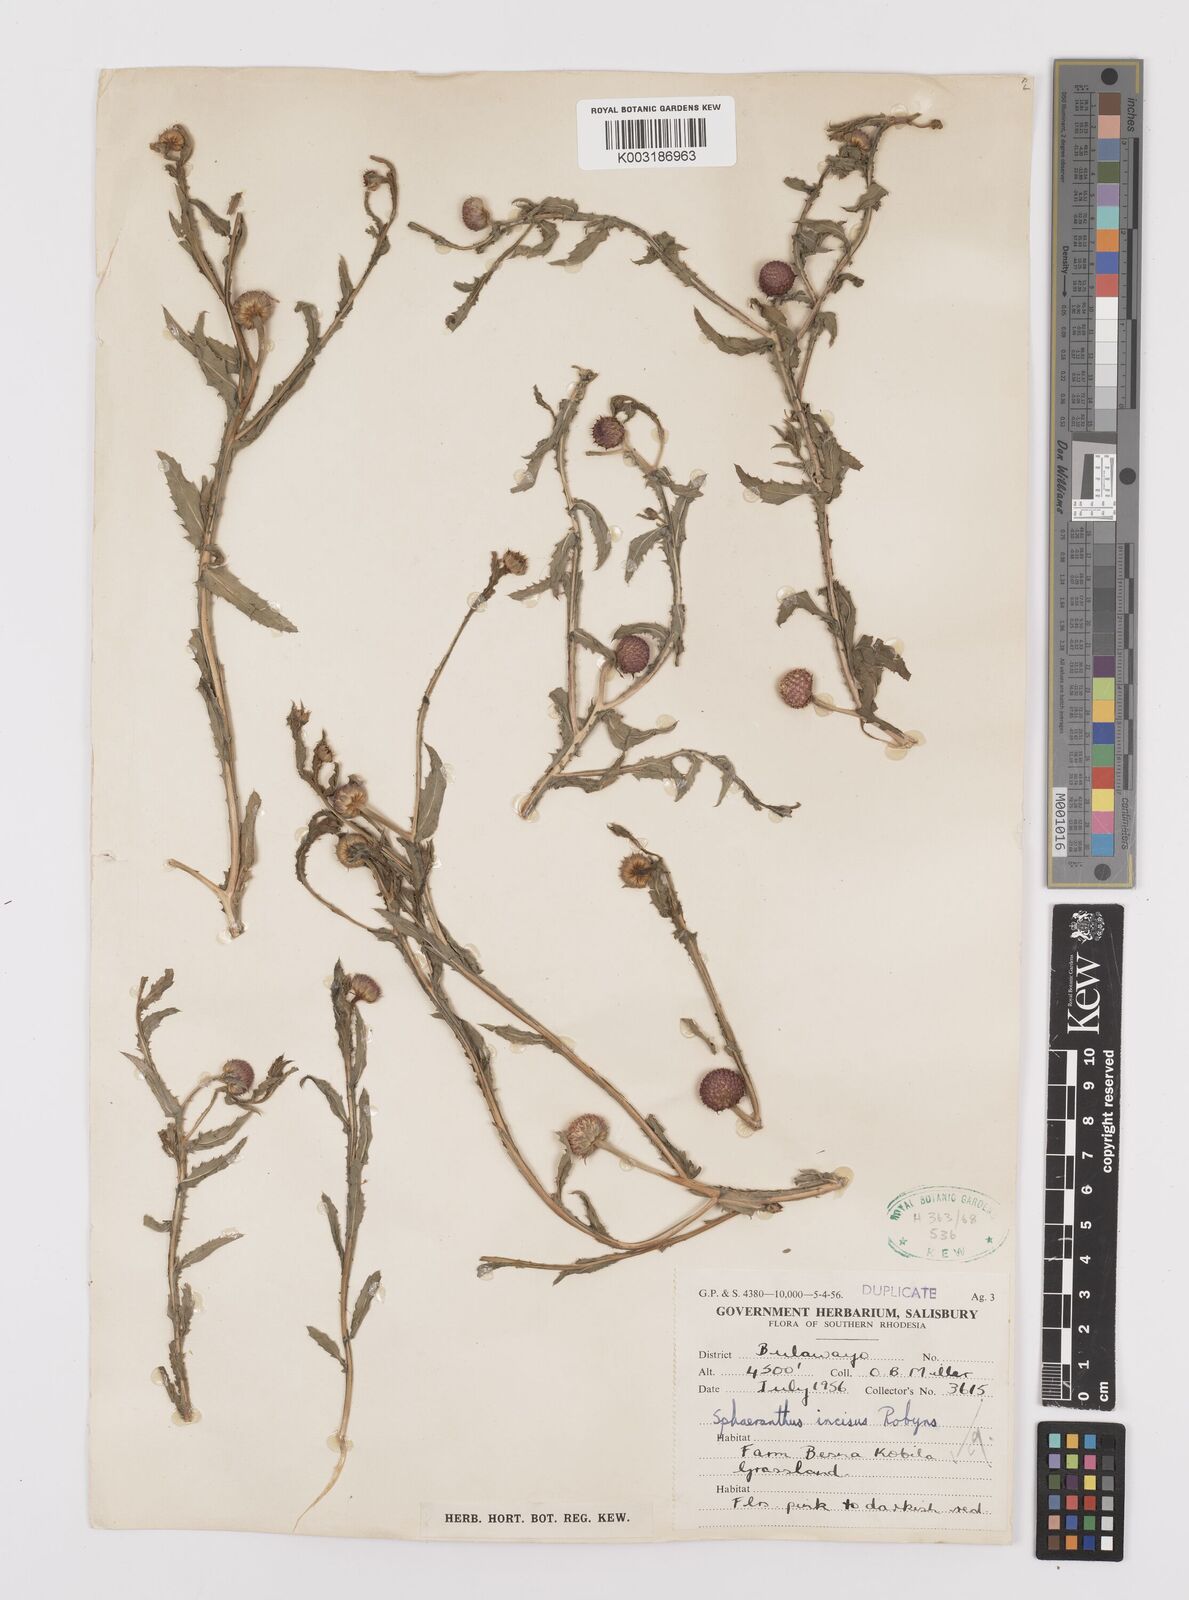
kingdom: Plantae
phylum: Tracheophyta
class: Magnoliopsida
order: Asterales
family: Asteraceae
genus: Sphaeranthus
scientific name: Sphaeranthus peduncularis
